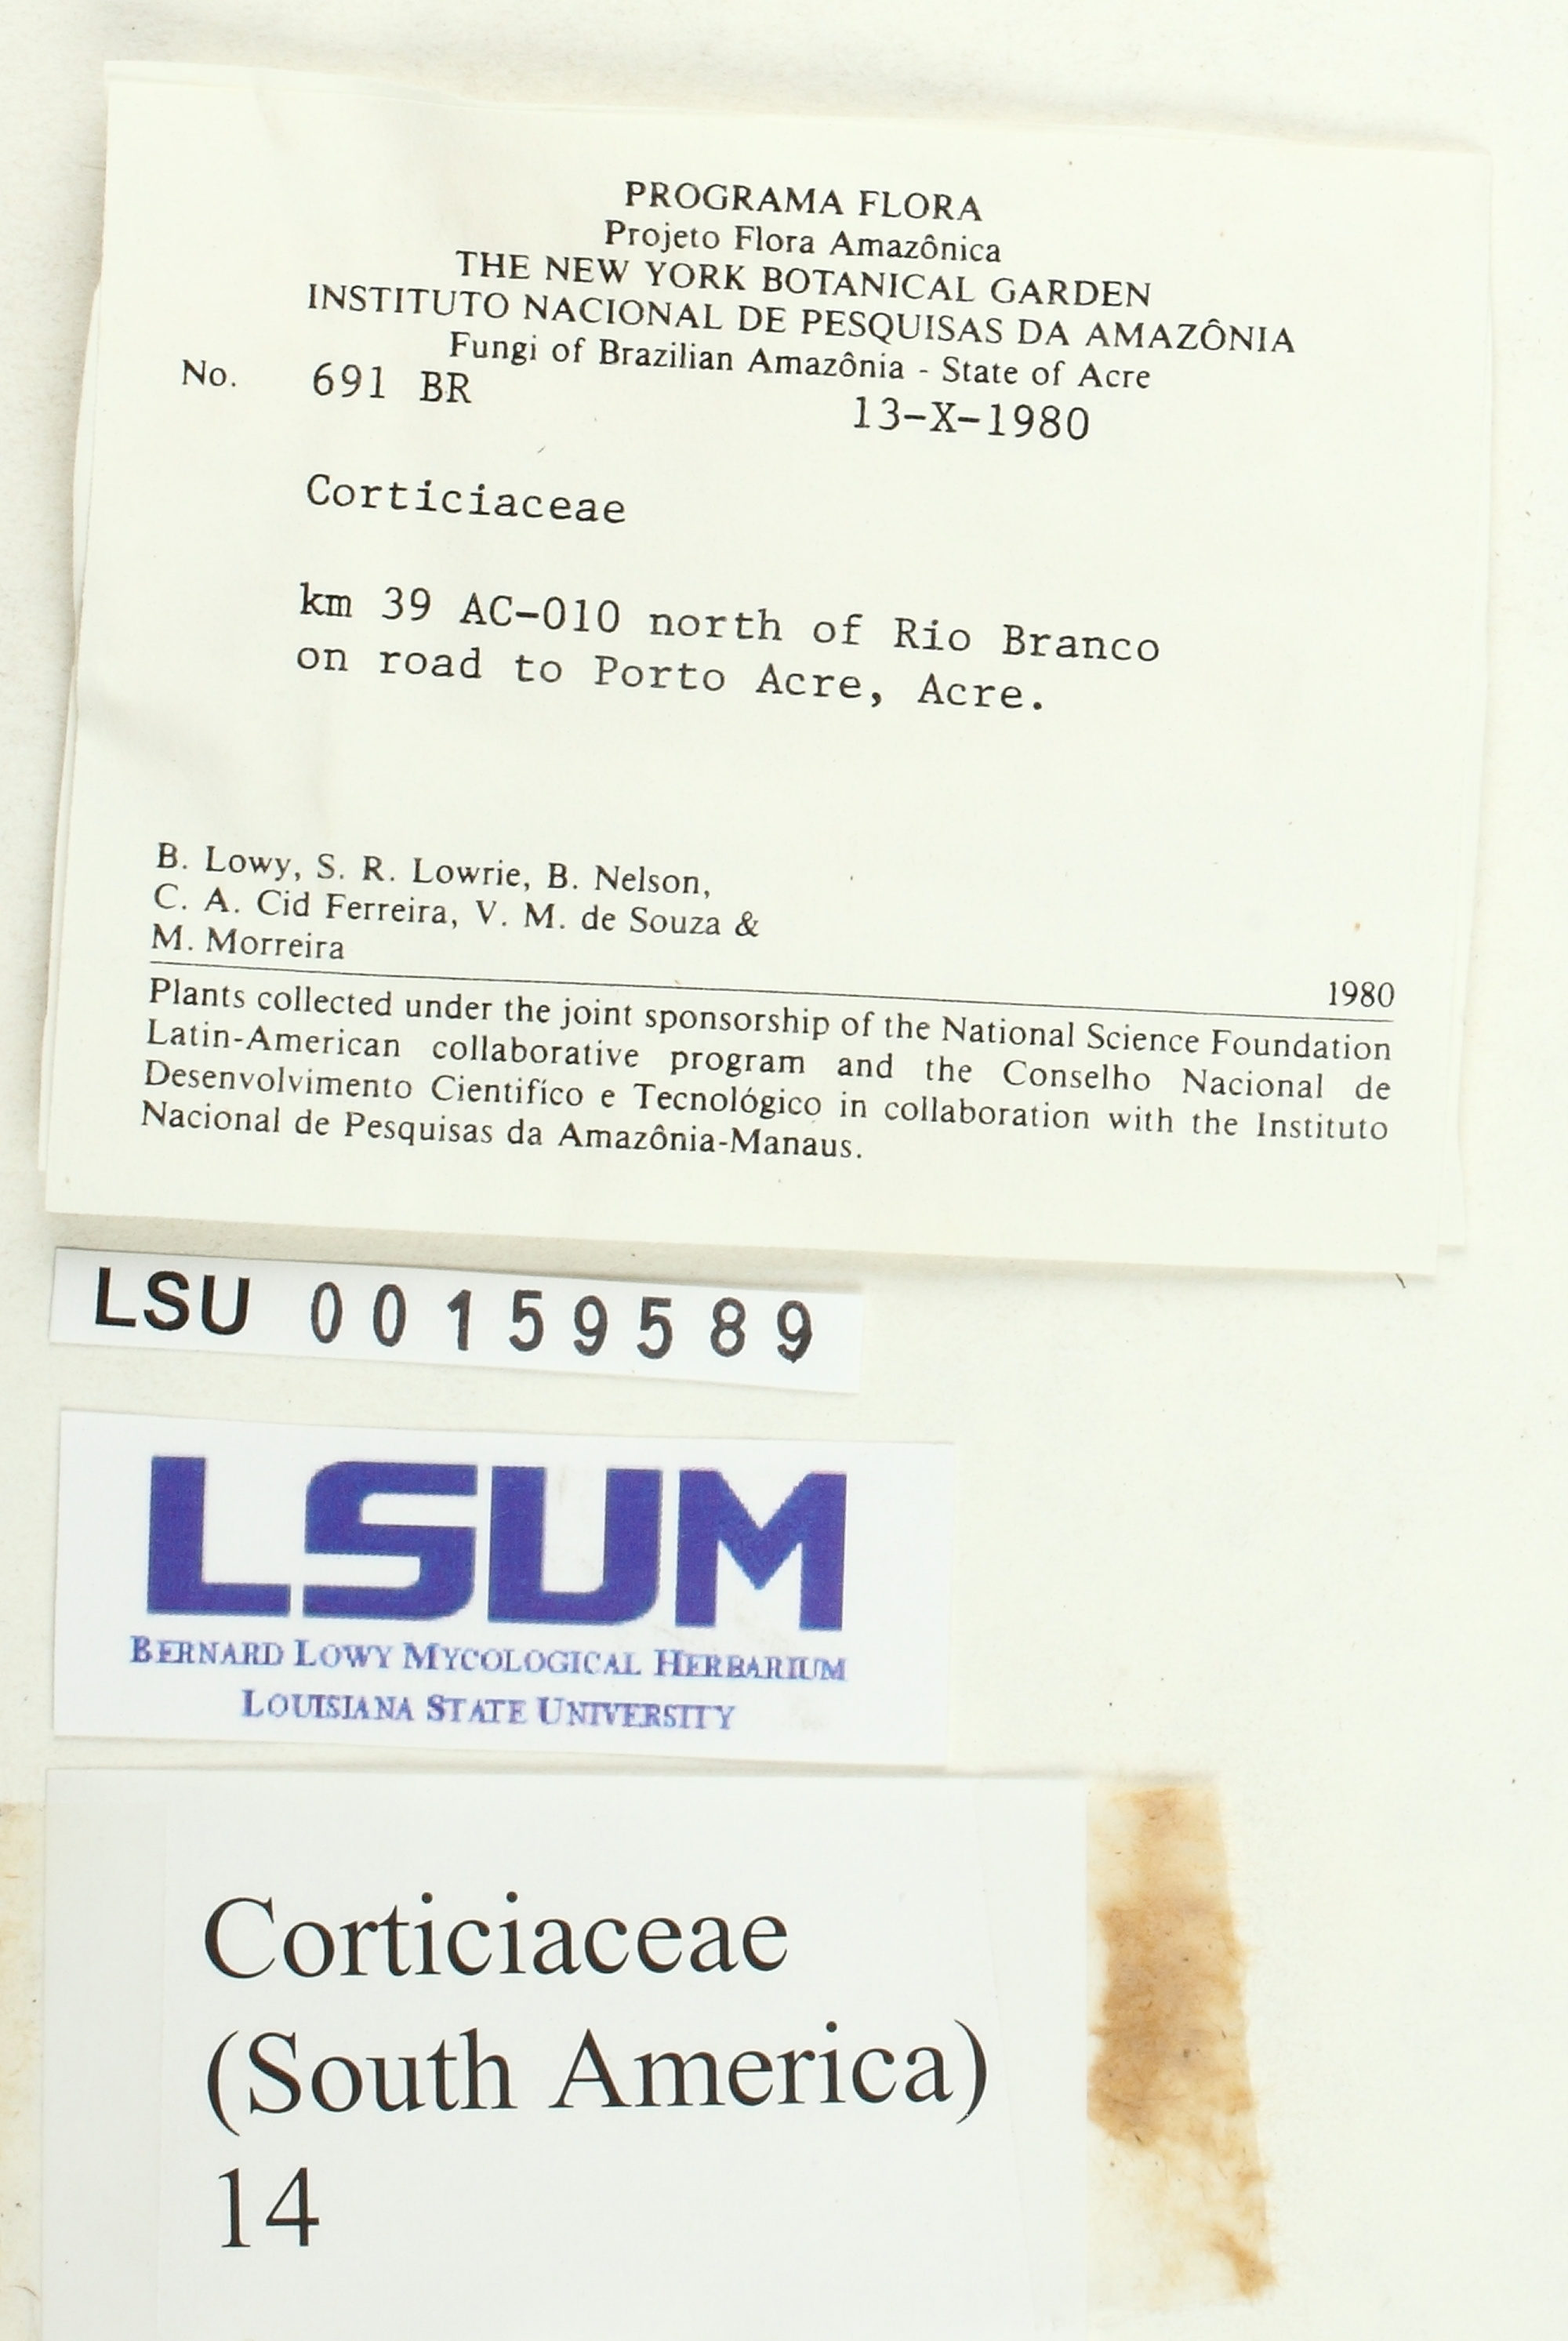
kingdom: Fungi
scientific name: Fungi
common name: Fungi
